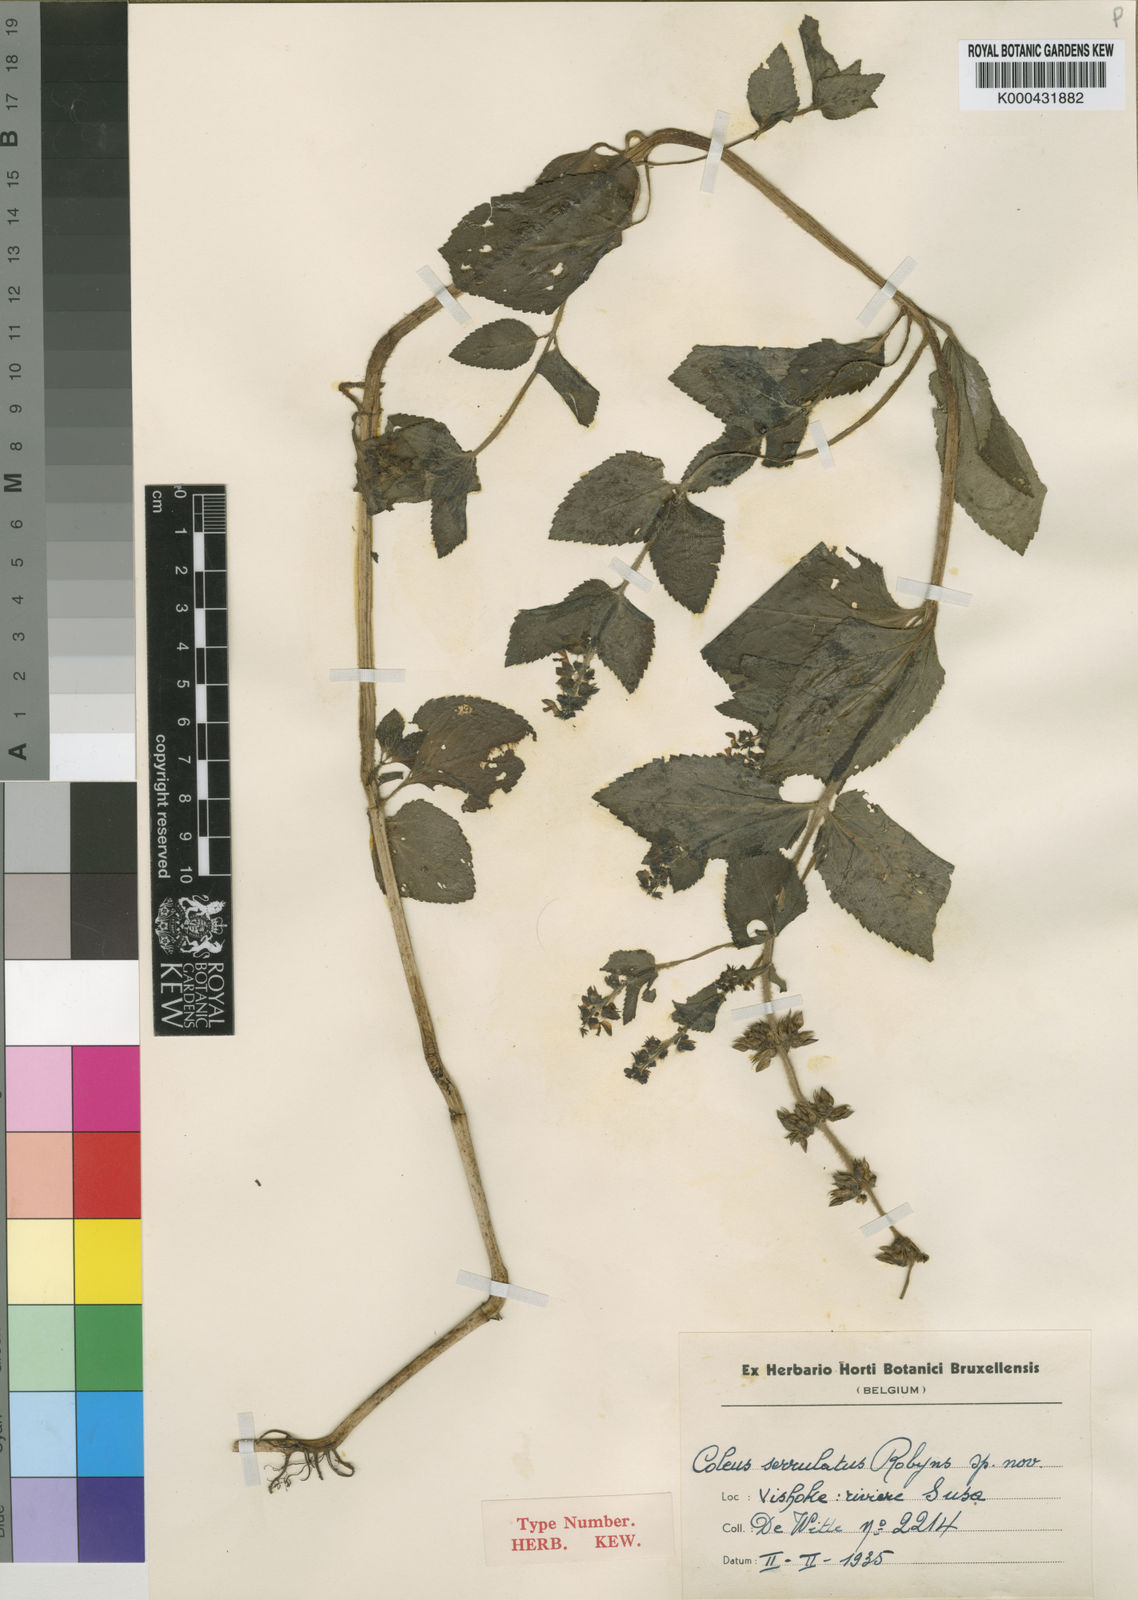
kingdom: Plantae
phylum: Tracheophyta
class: Magnoliopsida
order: Lamiales
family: Lamiaceae
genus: Coleus
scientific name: Coleus maculosus
